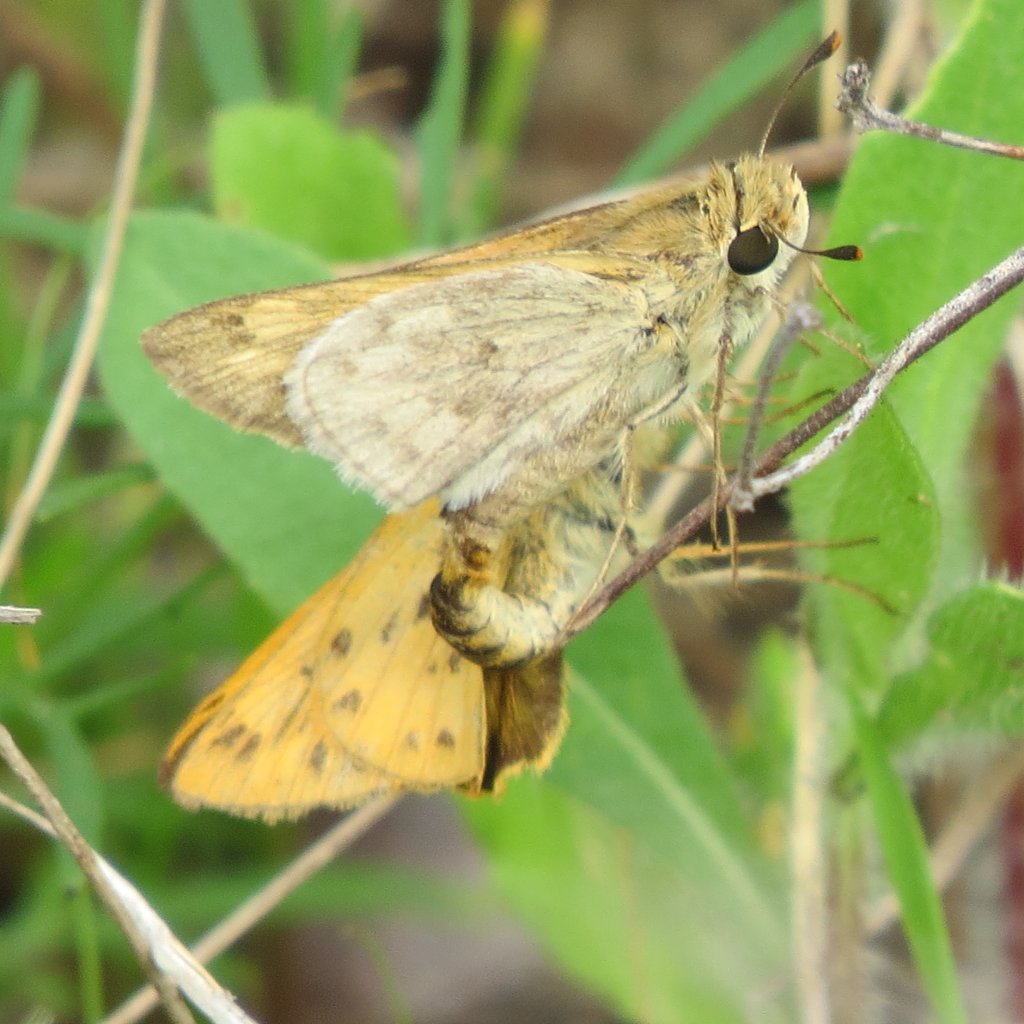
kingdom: Animalia
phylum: Arthropoda
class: Insecta
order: Lepidoptera
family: Hesperiidae
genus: Hylephila
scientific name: Hylephila phyleus
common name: Fiery Skipper
